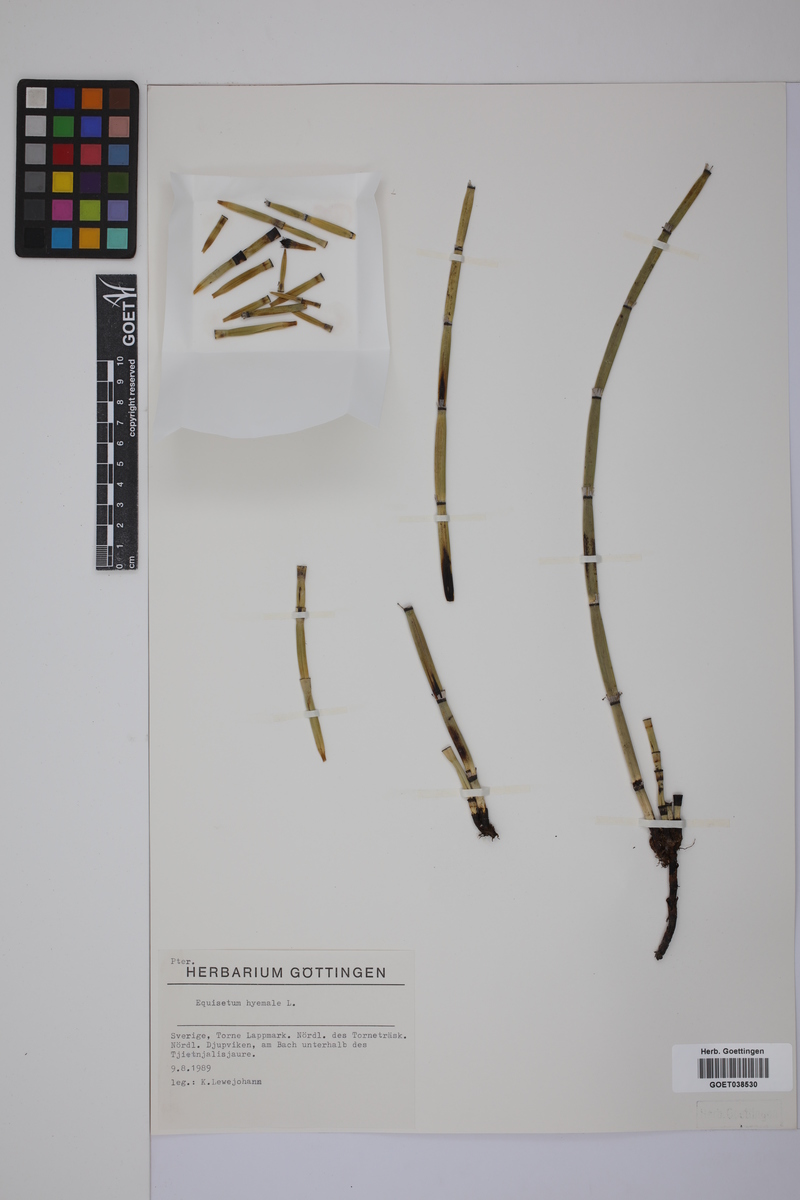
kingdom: Plantae
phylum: Tracheophyta
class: Polypodiopsida
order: Equisetales
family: Equisetaceae
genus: Equisetum
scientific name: Equisetum hyemale
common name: Rough horsetail
